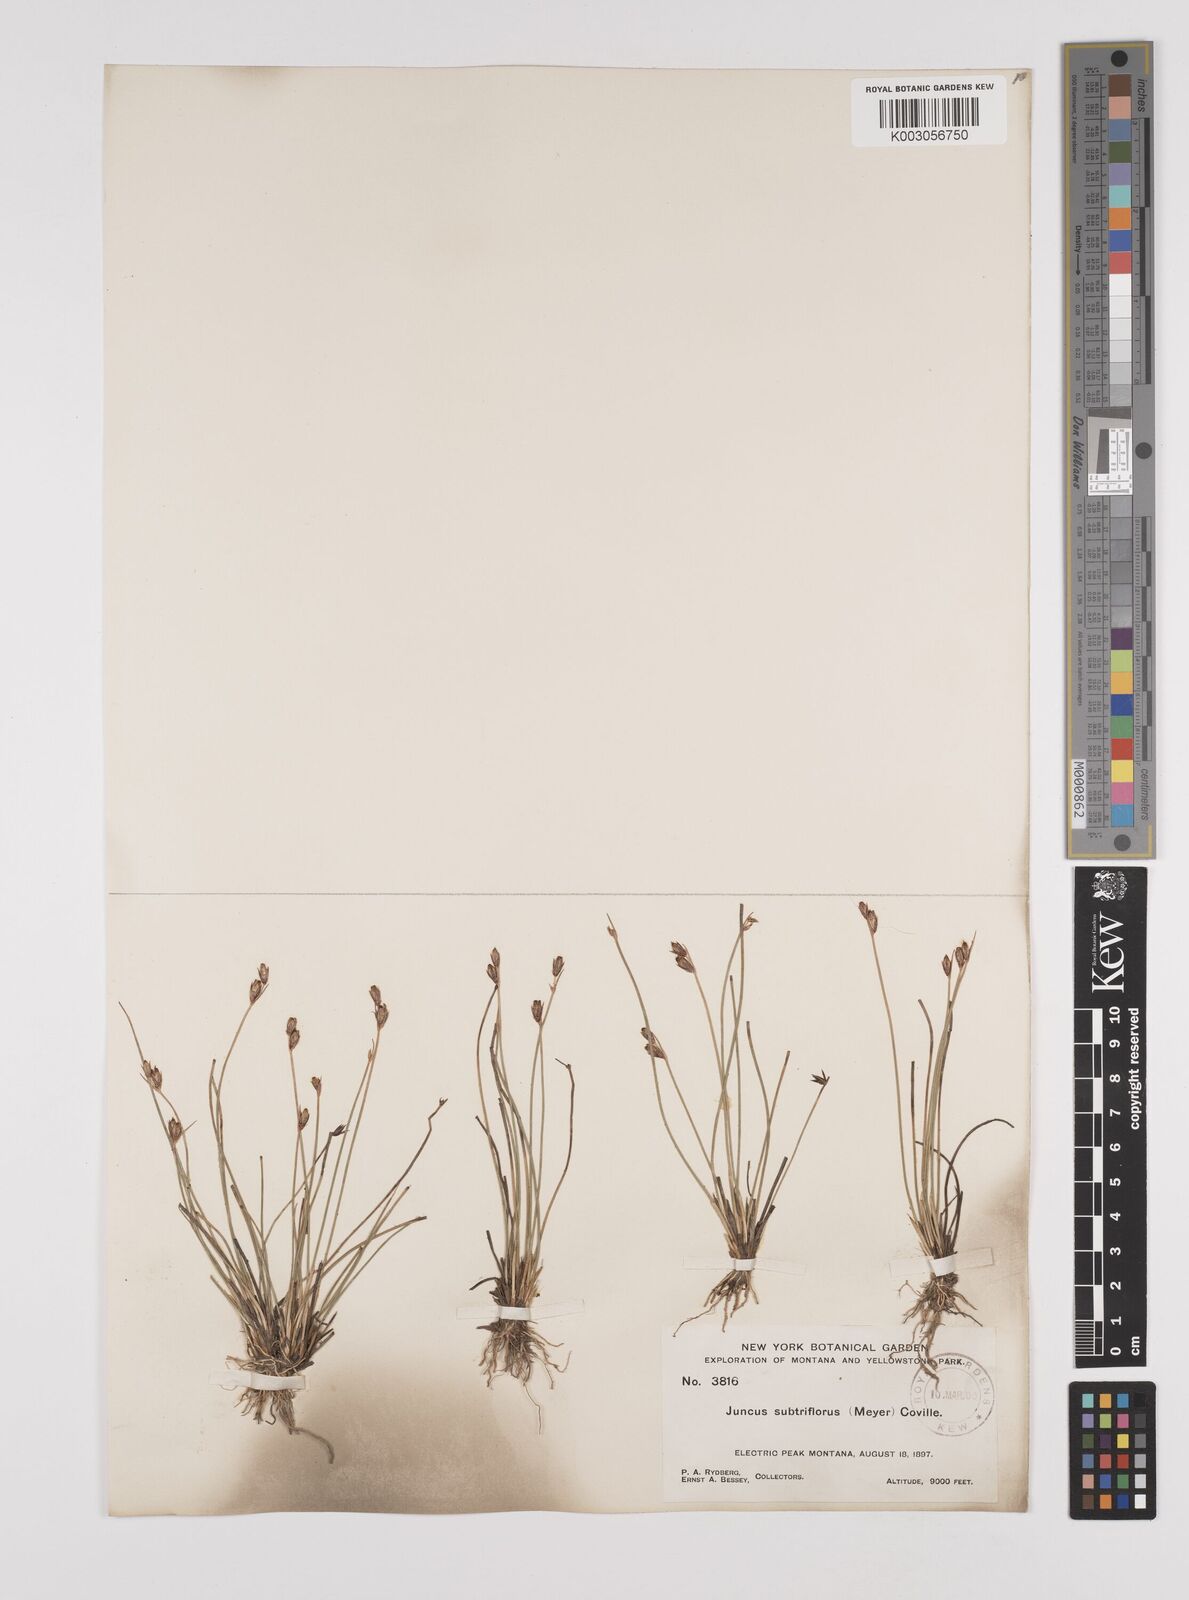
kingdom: Plantae
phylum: Tracheophyta
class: Liliopsida
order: Poales
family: Juncaceae
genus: Juncus
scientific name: Juncus drummondii
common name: Drummond's rush
